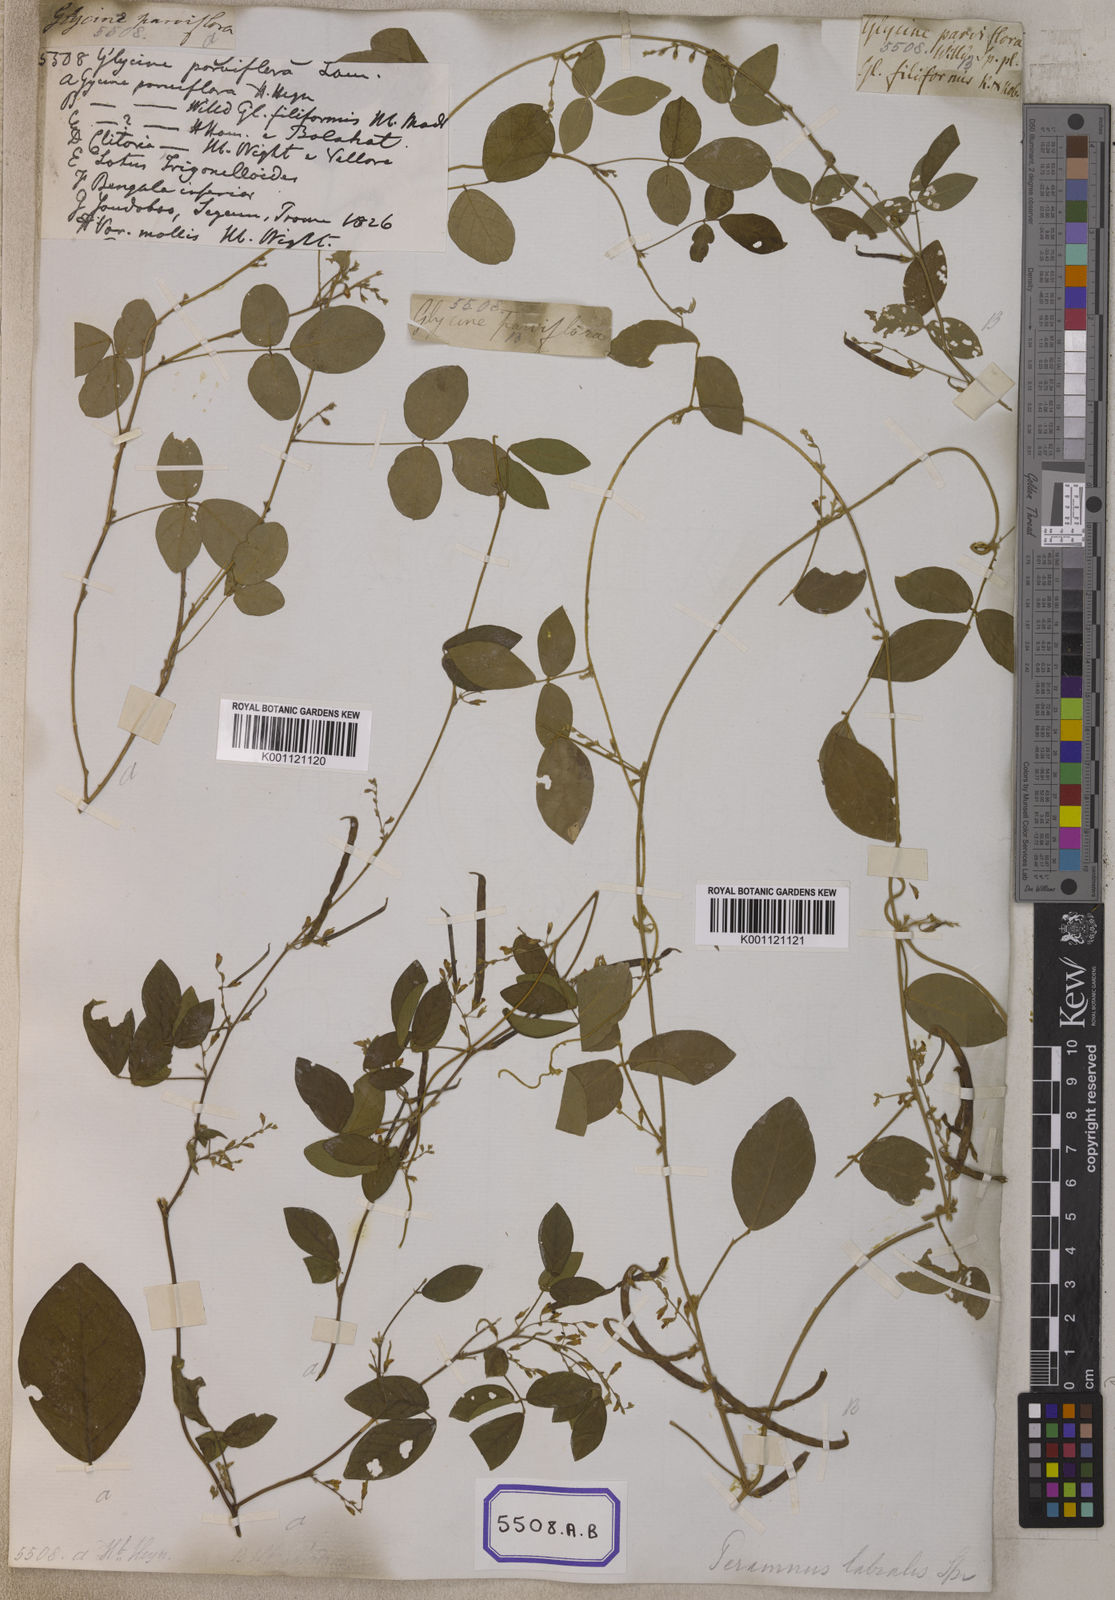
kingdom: Plantae
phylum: Tracheophyta
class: Magnoliopsida
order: Fabales
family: Fabaceae
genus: Teramnus
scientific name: Teramnus labialis
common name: Blue wiss
